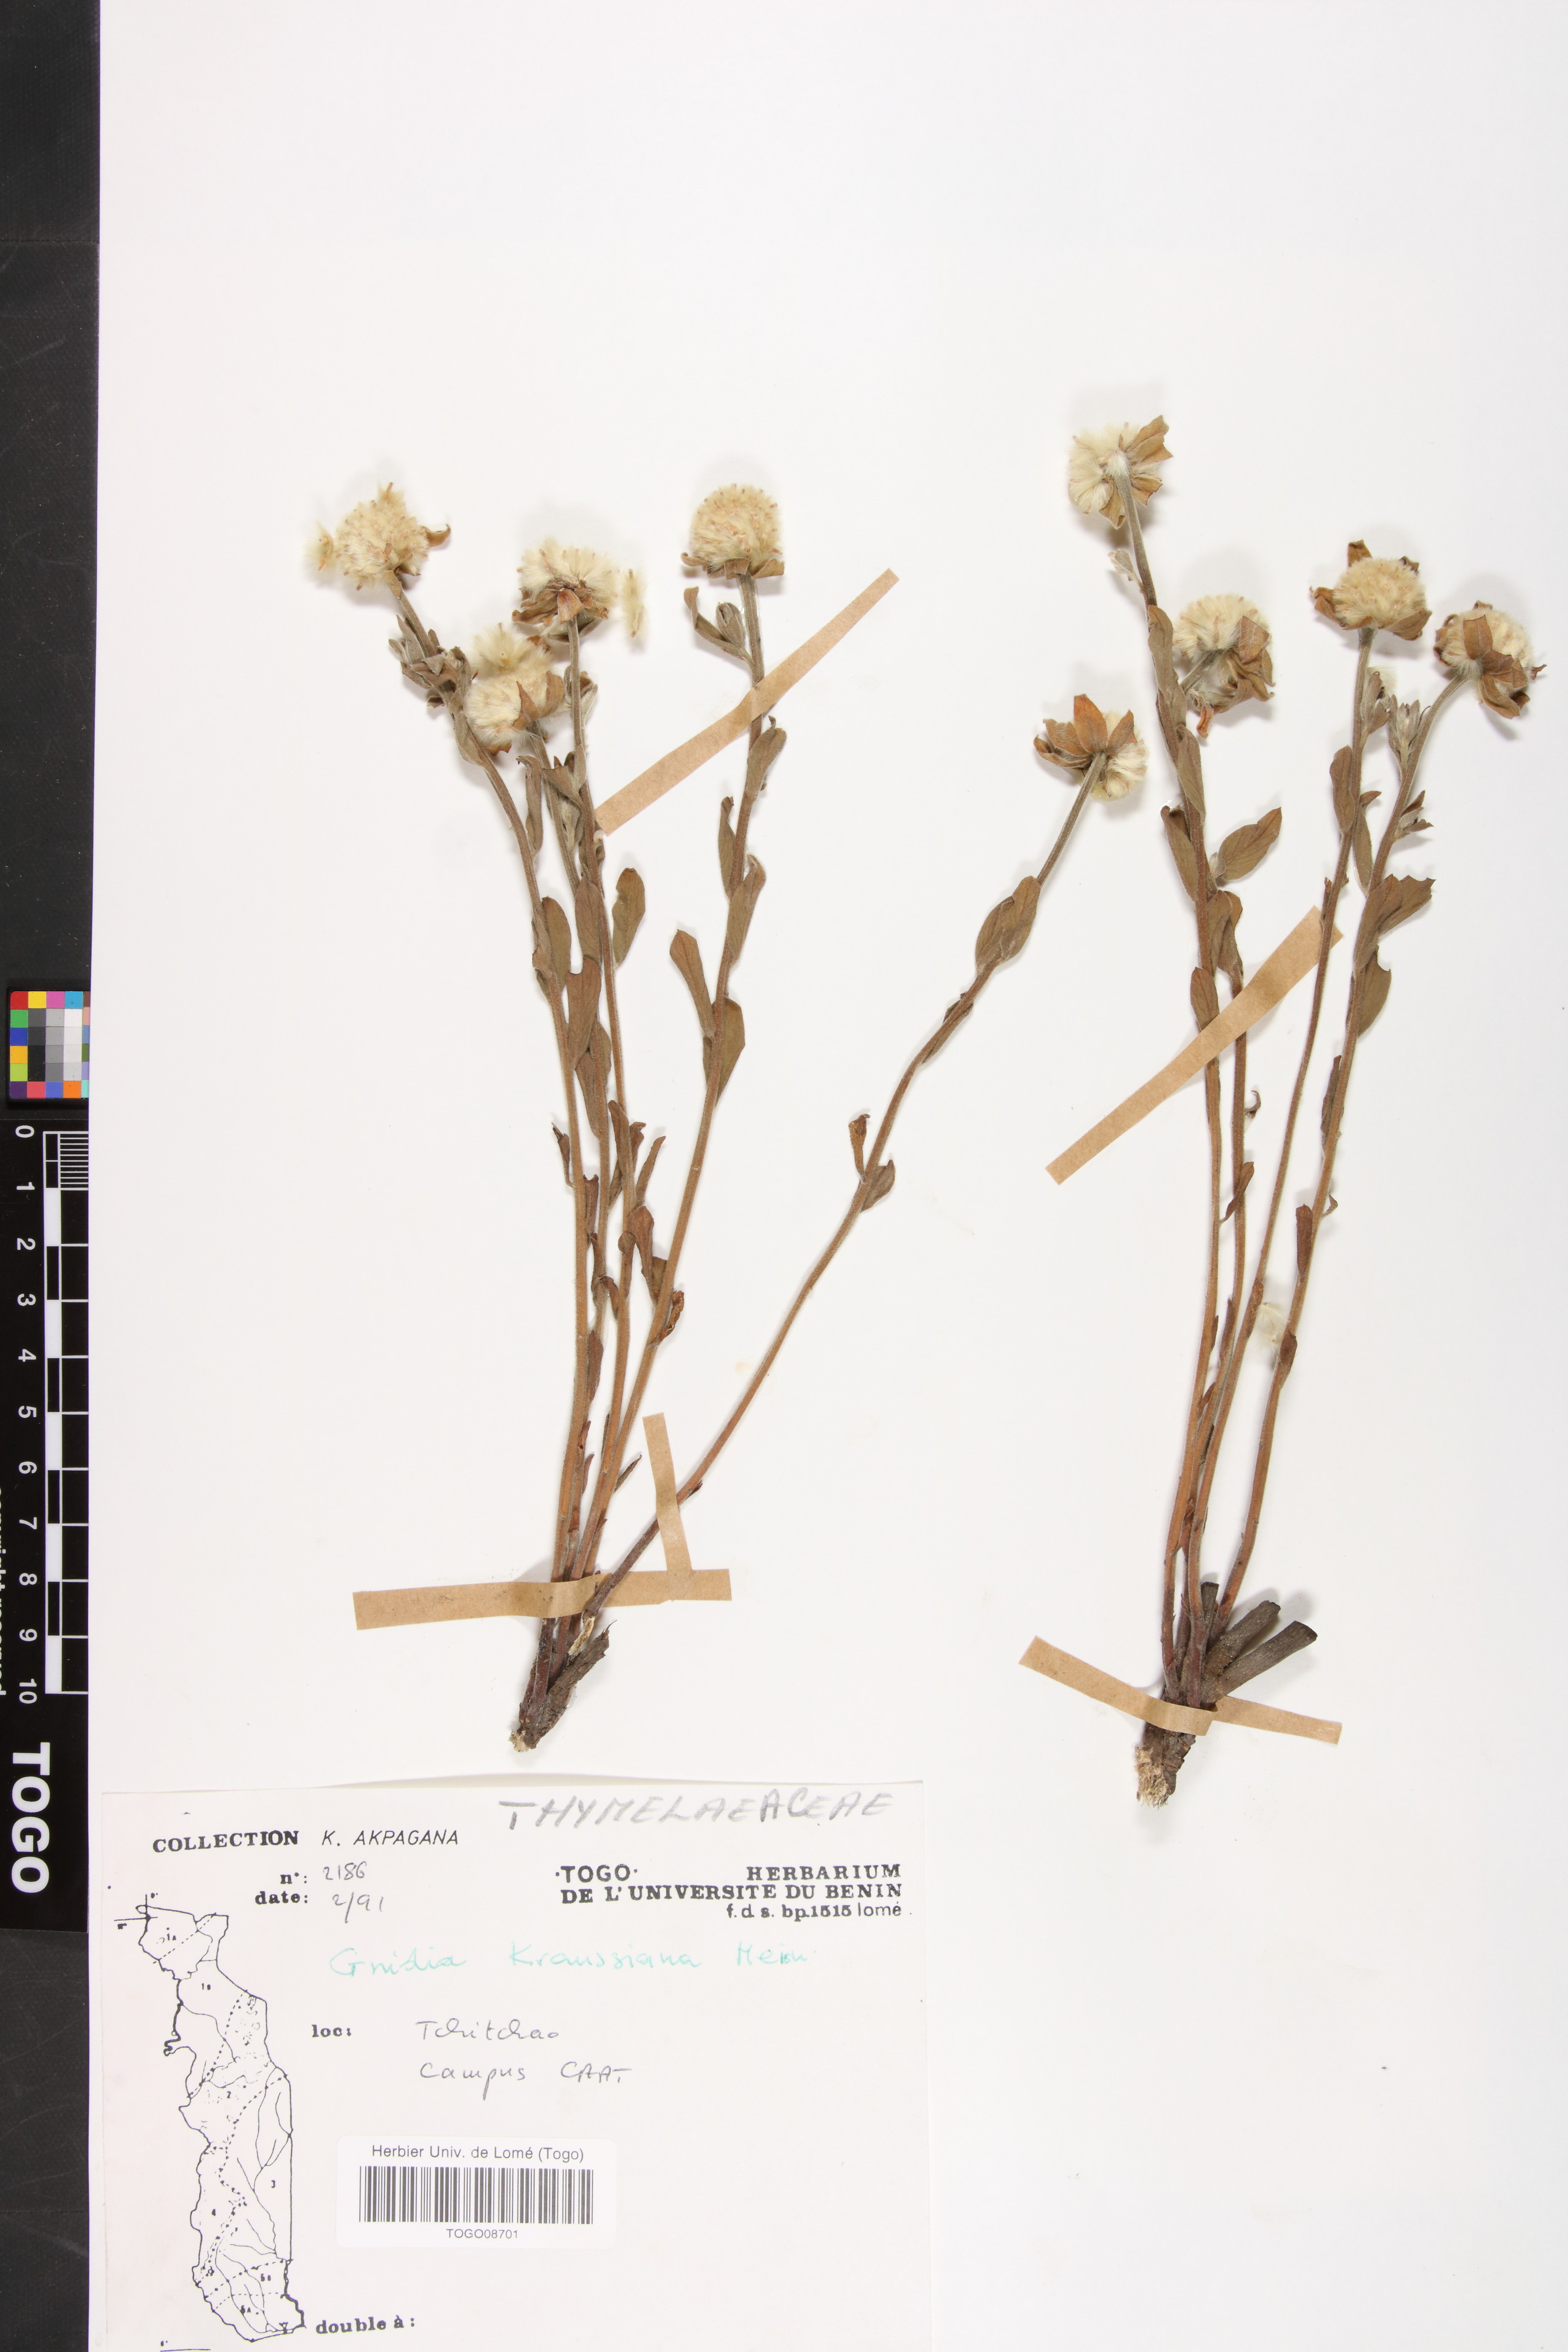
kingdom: Plantae
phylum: Tracheophyta
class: Magnoliopsida
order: Malvales
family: Thymelaeaceae
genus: Gnidia
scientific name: Gnidia kraussiana
